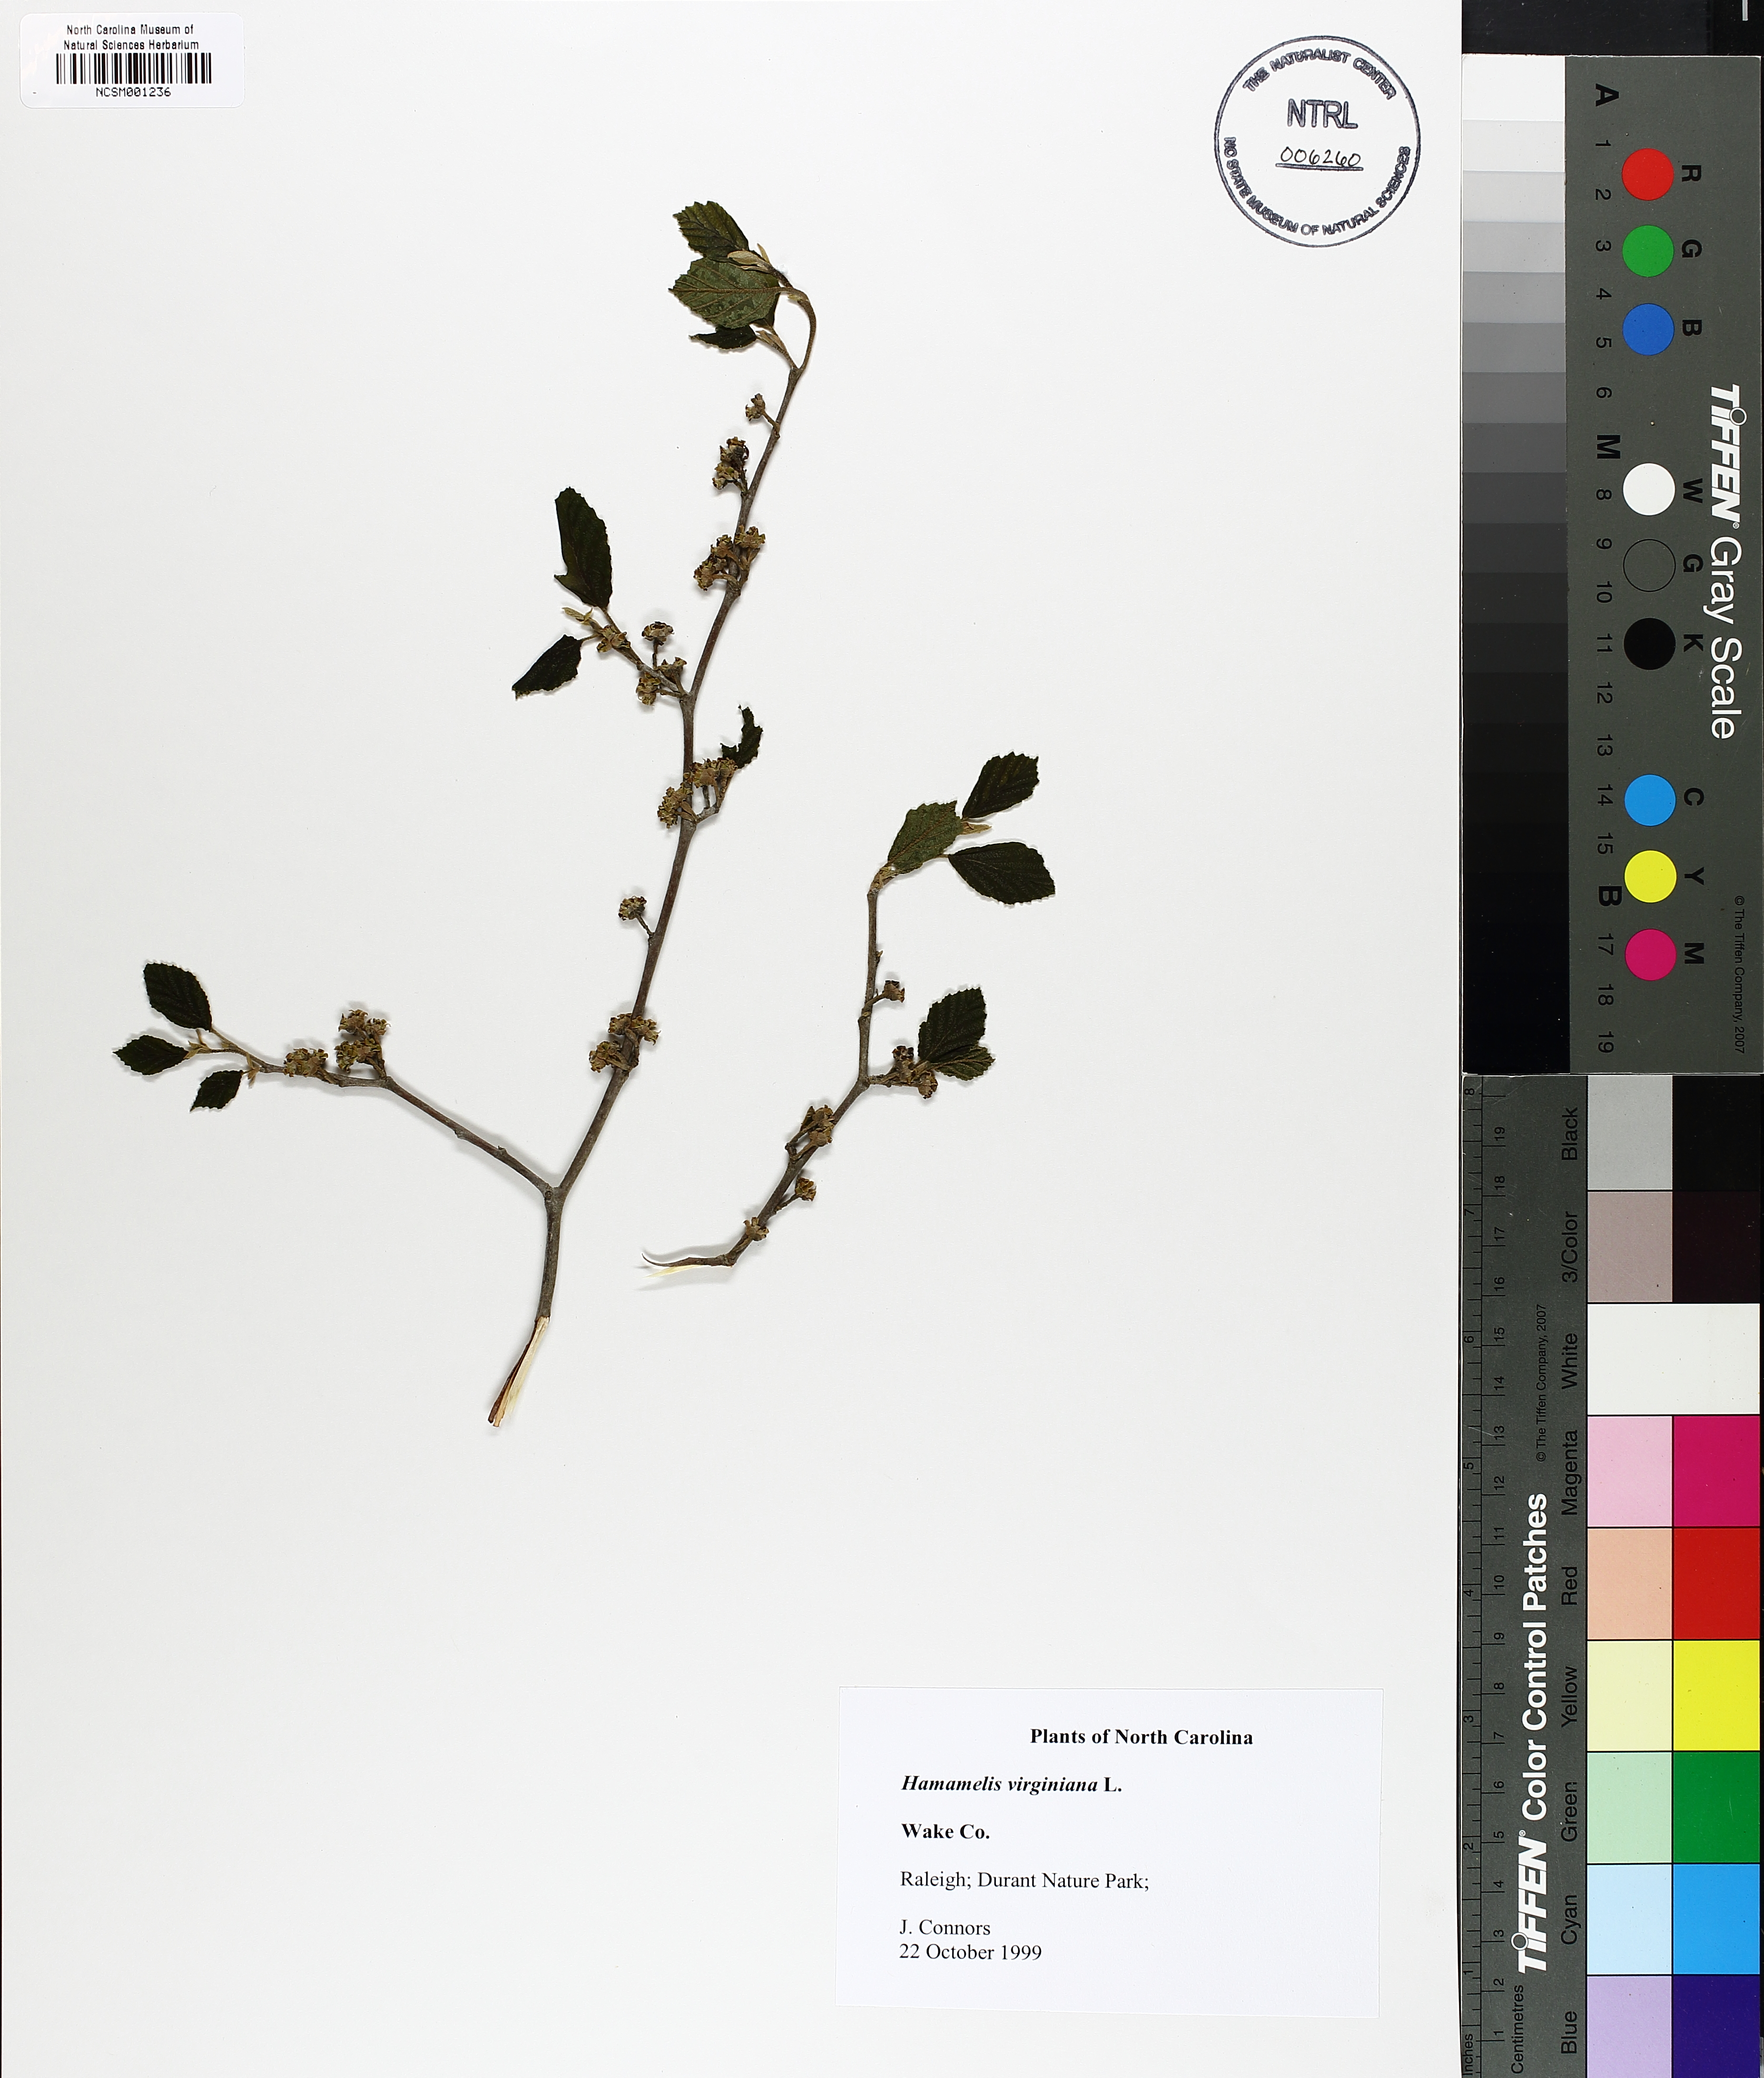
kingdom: Plantae
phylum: Tracheophyta
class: Magnoliopsida
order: Saxifragales
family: Hamamelidaceae
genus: Hamamelis
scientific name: Hamamelis virginiana
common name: Witch-hazel
